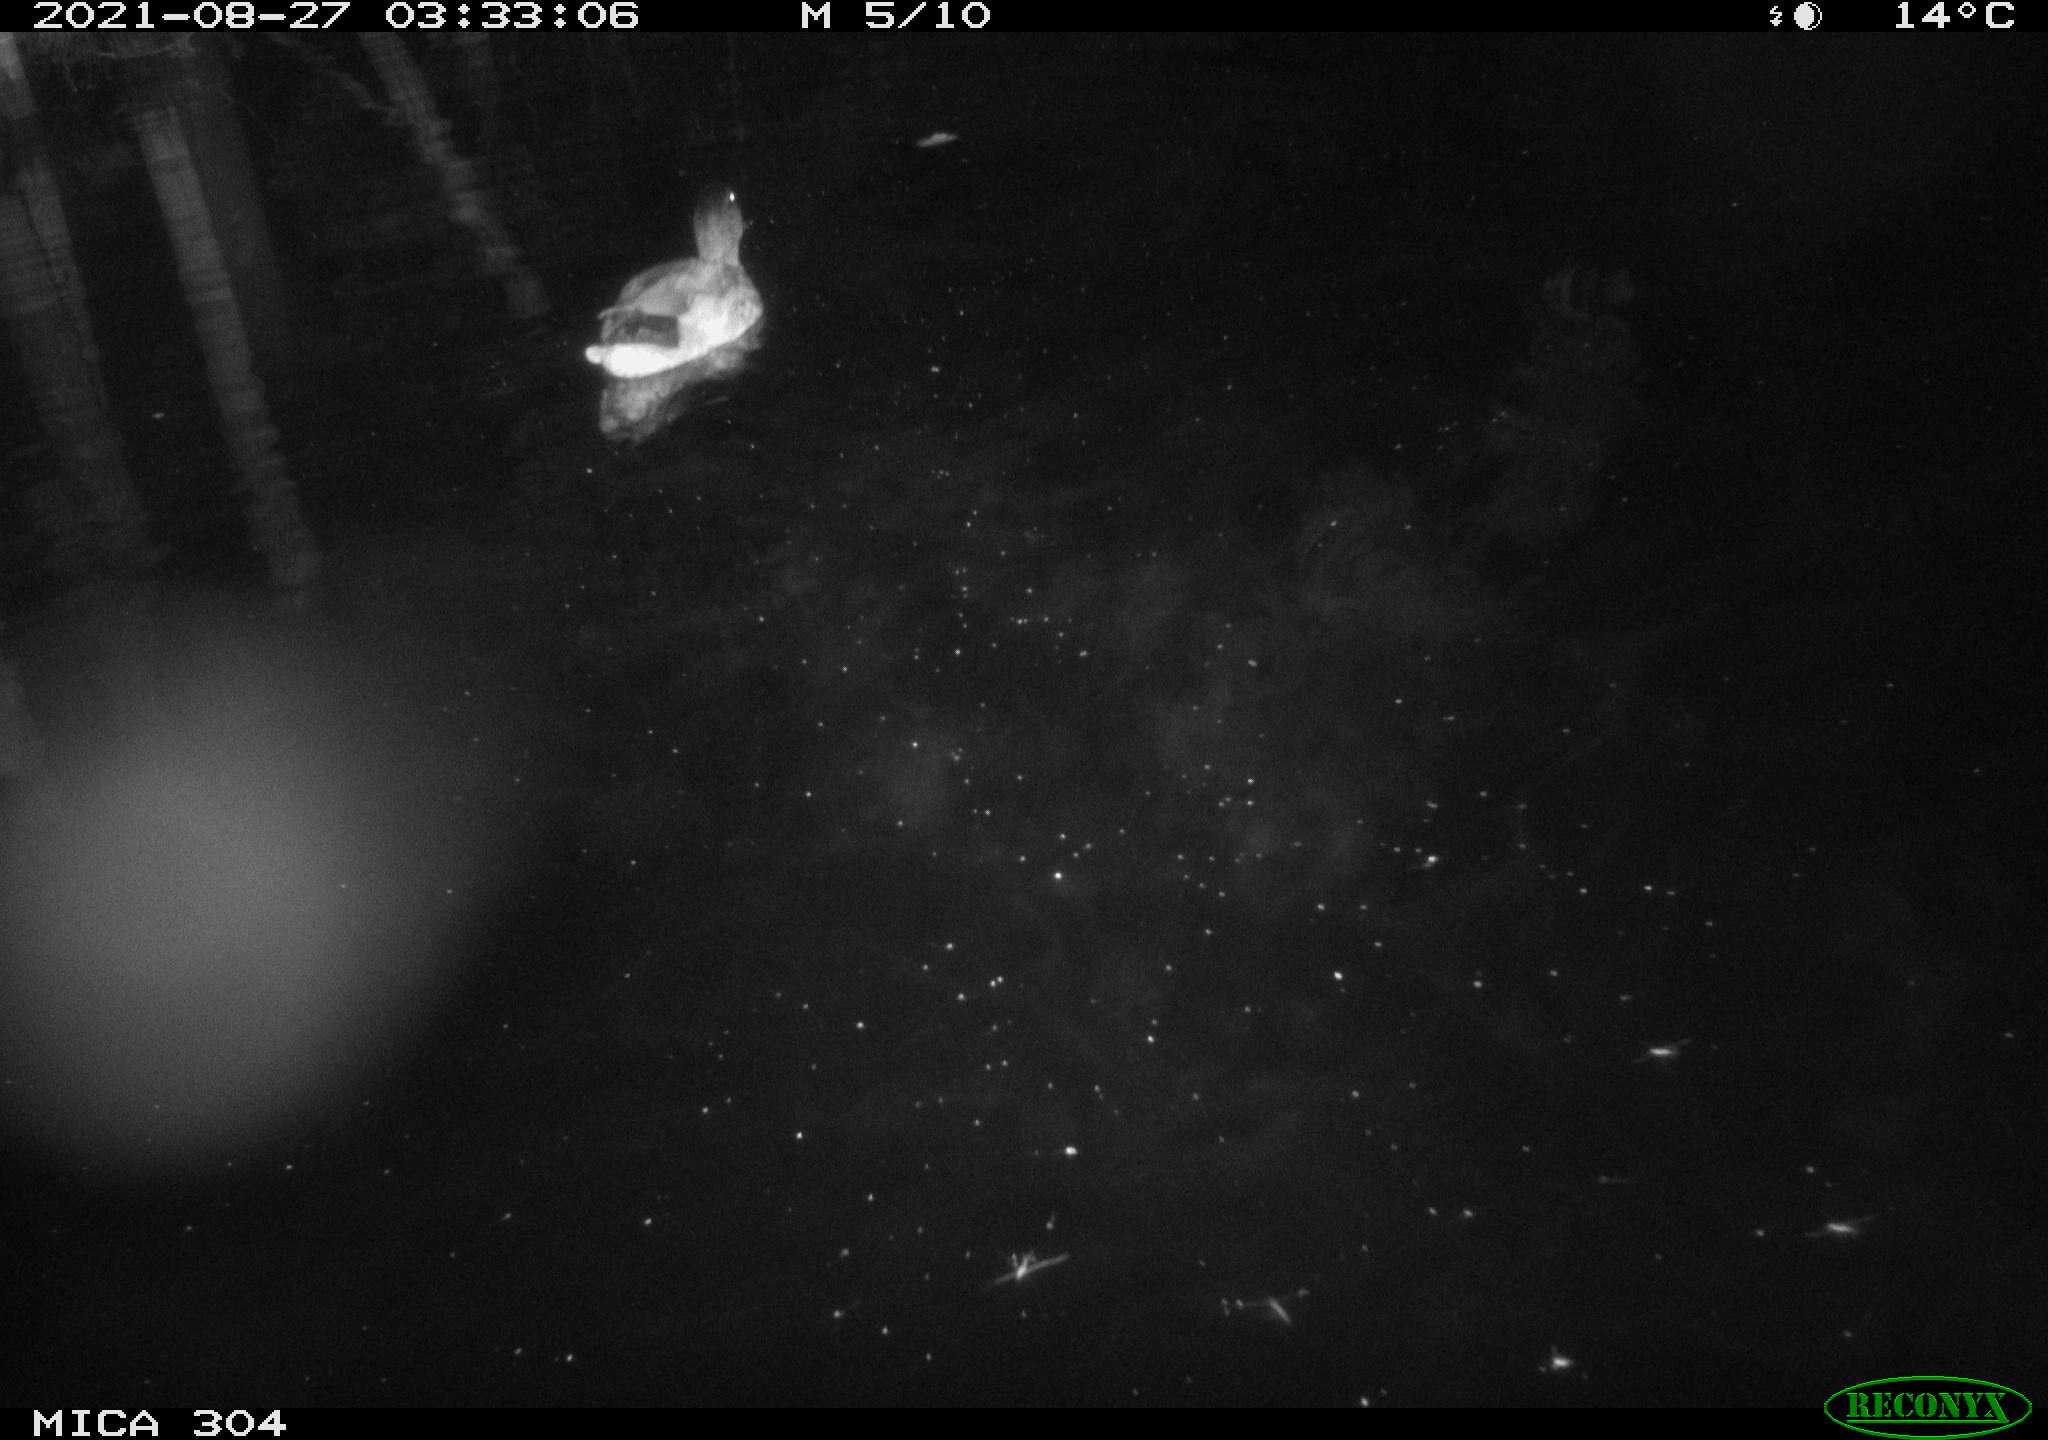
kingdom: Animalia
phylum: Chordata
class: Aves
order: Anseriformes
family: Anatidae
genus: Anas
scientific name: Anas platyrhynchos
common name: Mallard
